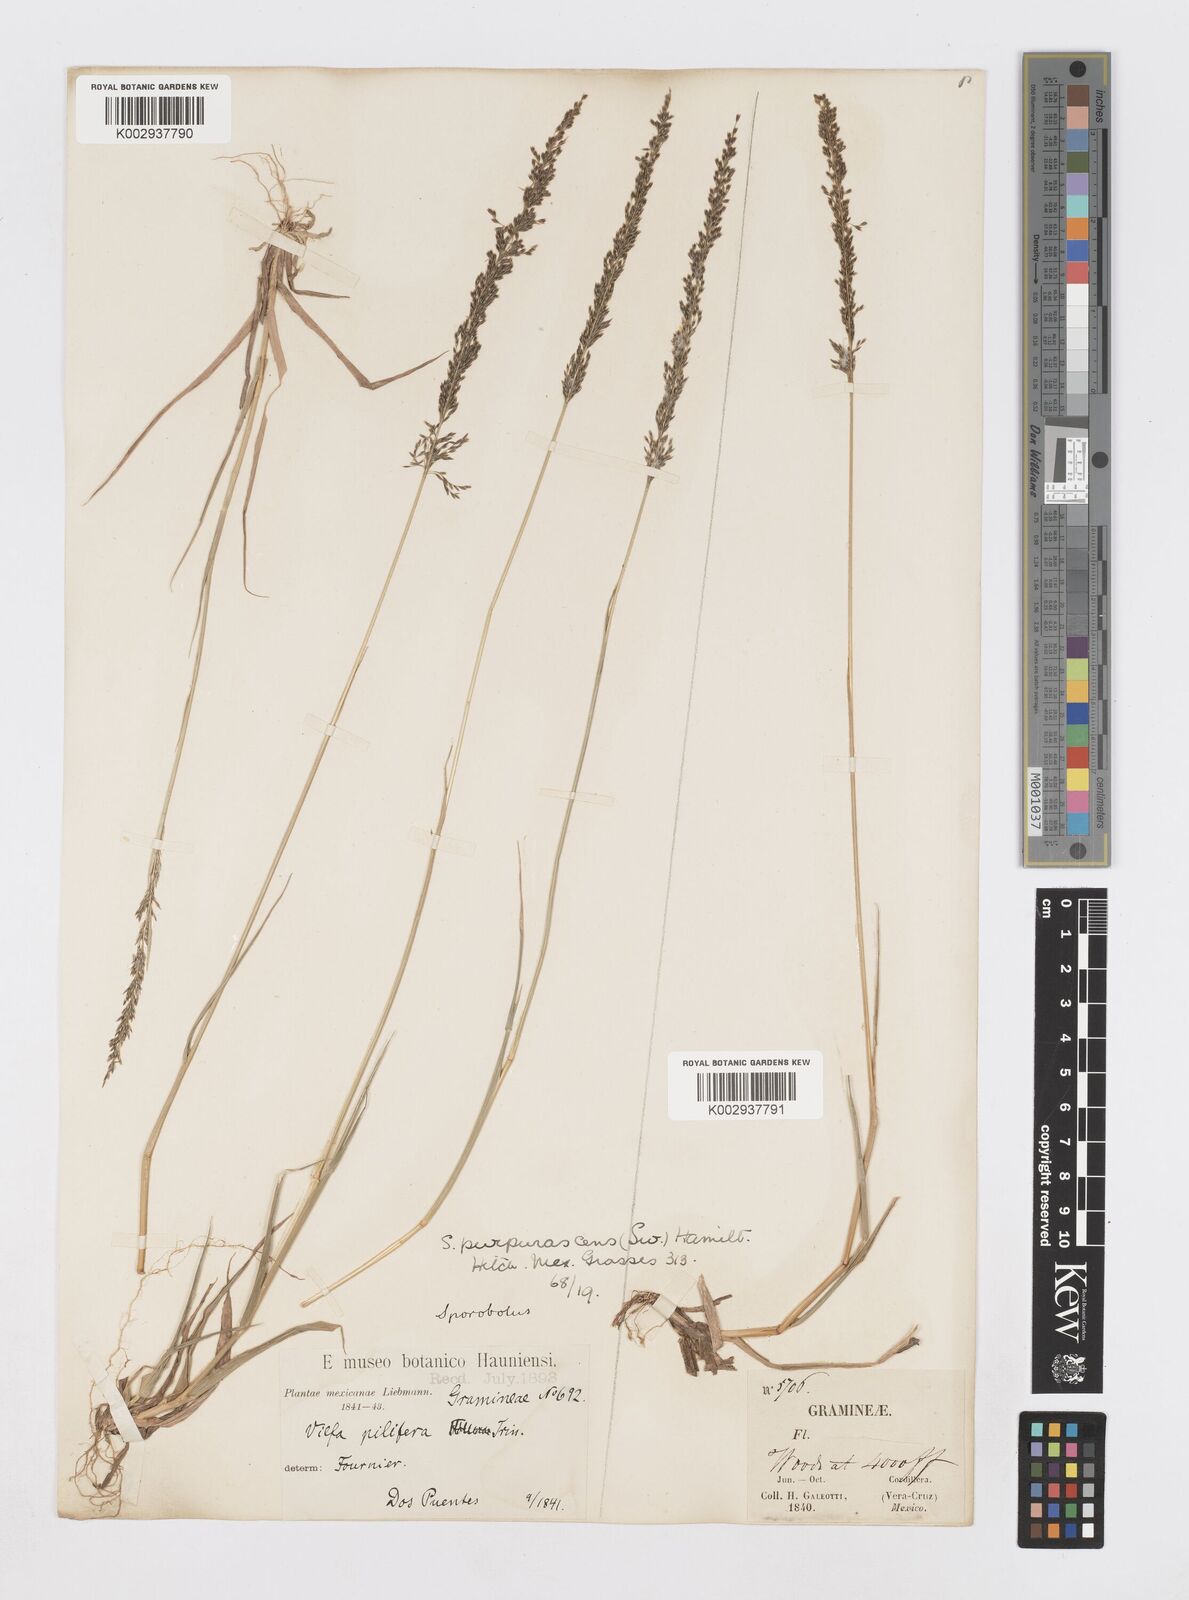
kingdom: Plantae
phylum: Tracheophyta
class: Liliopsida
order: Poales
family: Poaceae
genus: Sporobolus
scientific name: Sporobolus purpurascens
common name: Purple dropseed
